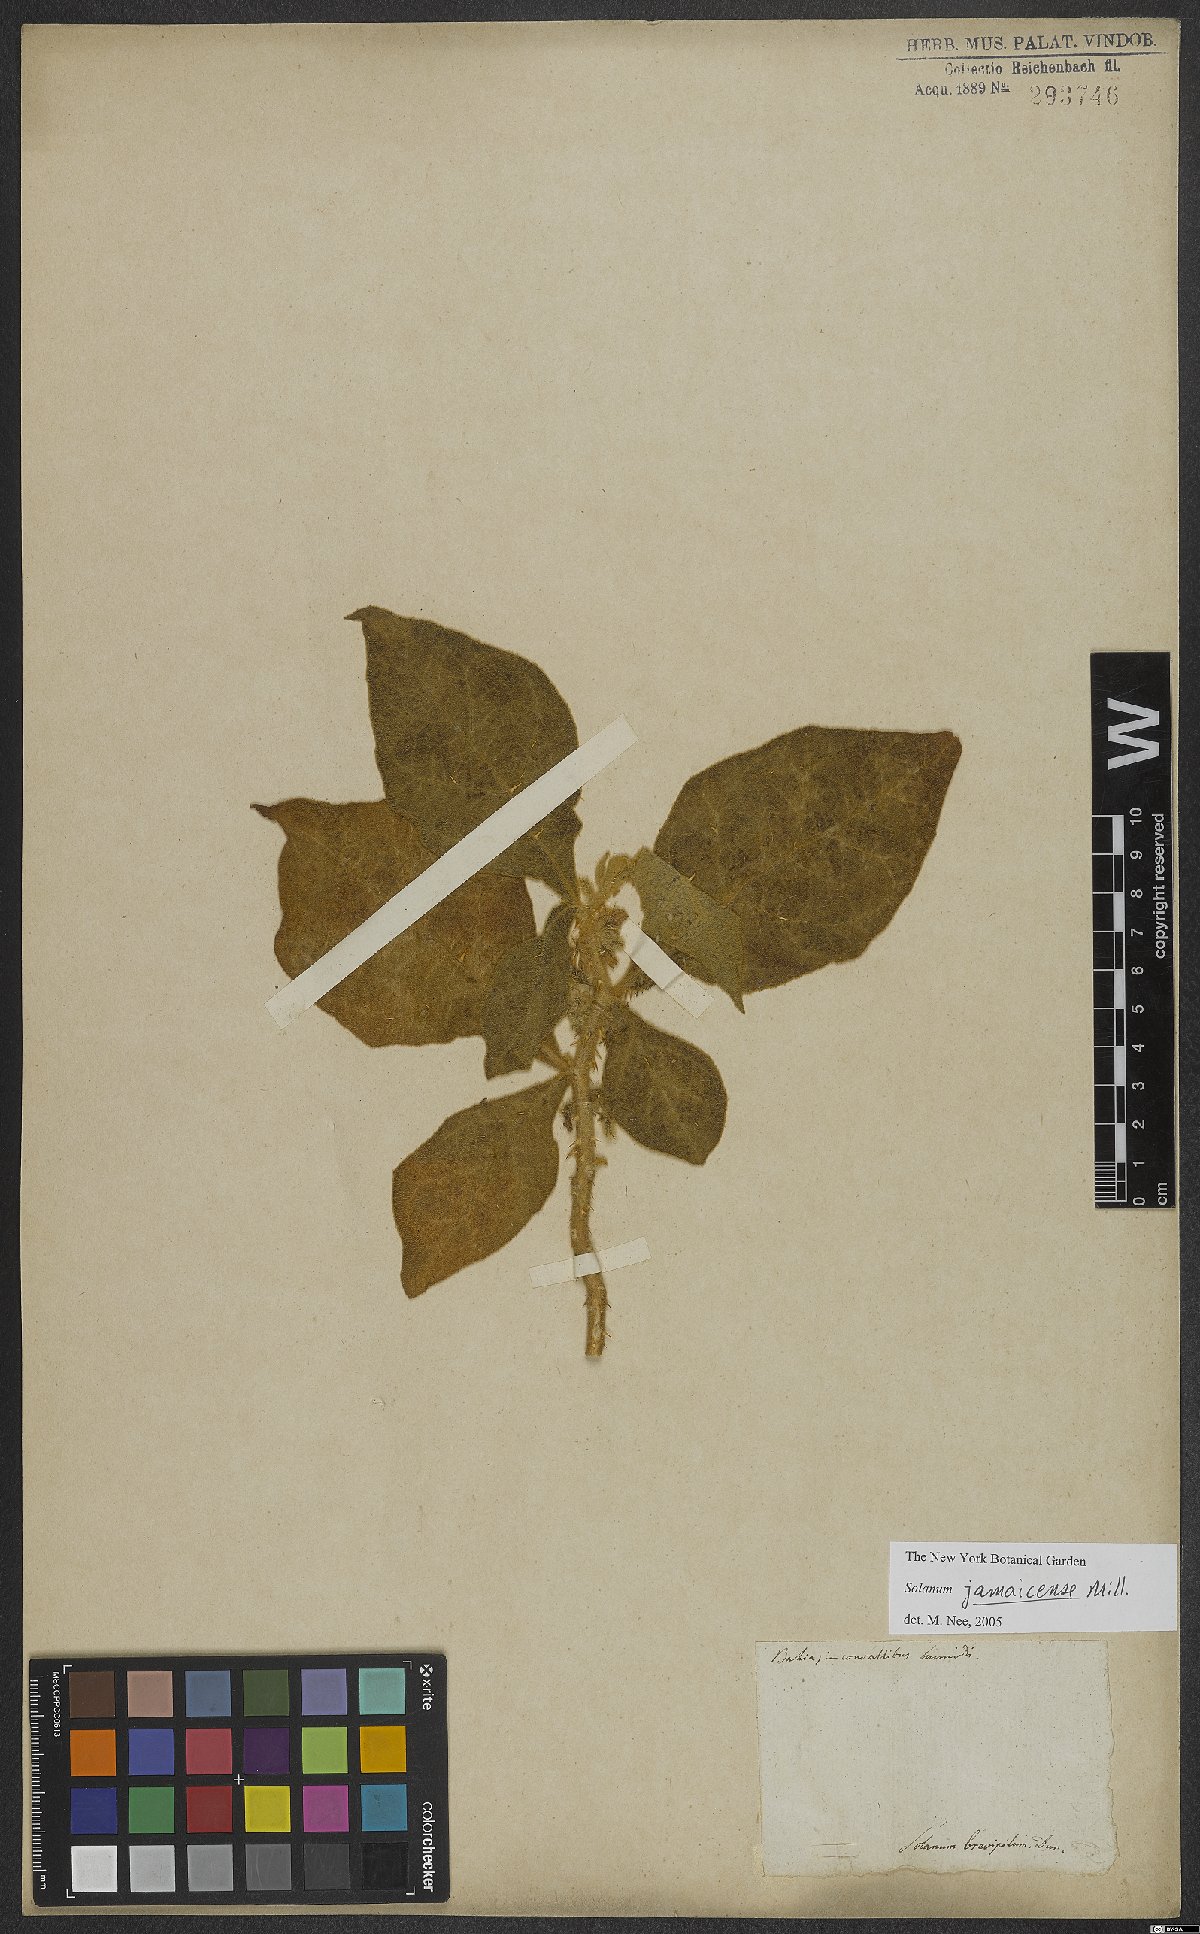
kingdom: Plantae
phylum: Tracheophyta
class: Magnoliopsida
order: Solanales
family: Solanaceae
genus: Solanum
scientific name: Solanum jamaicense
